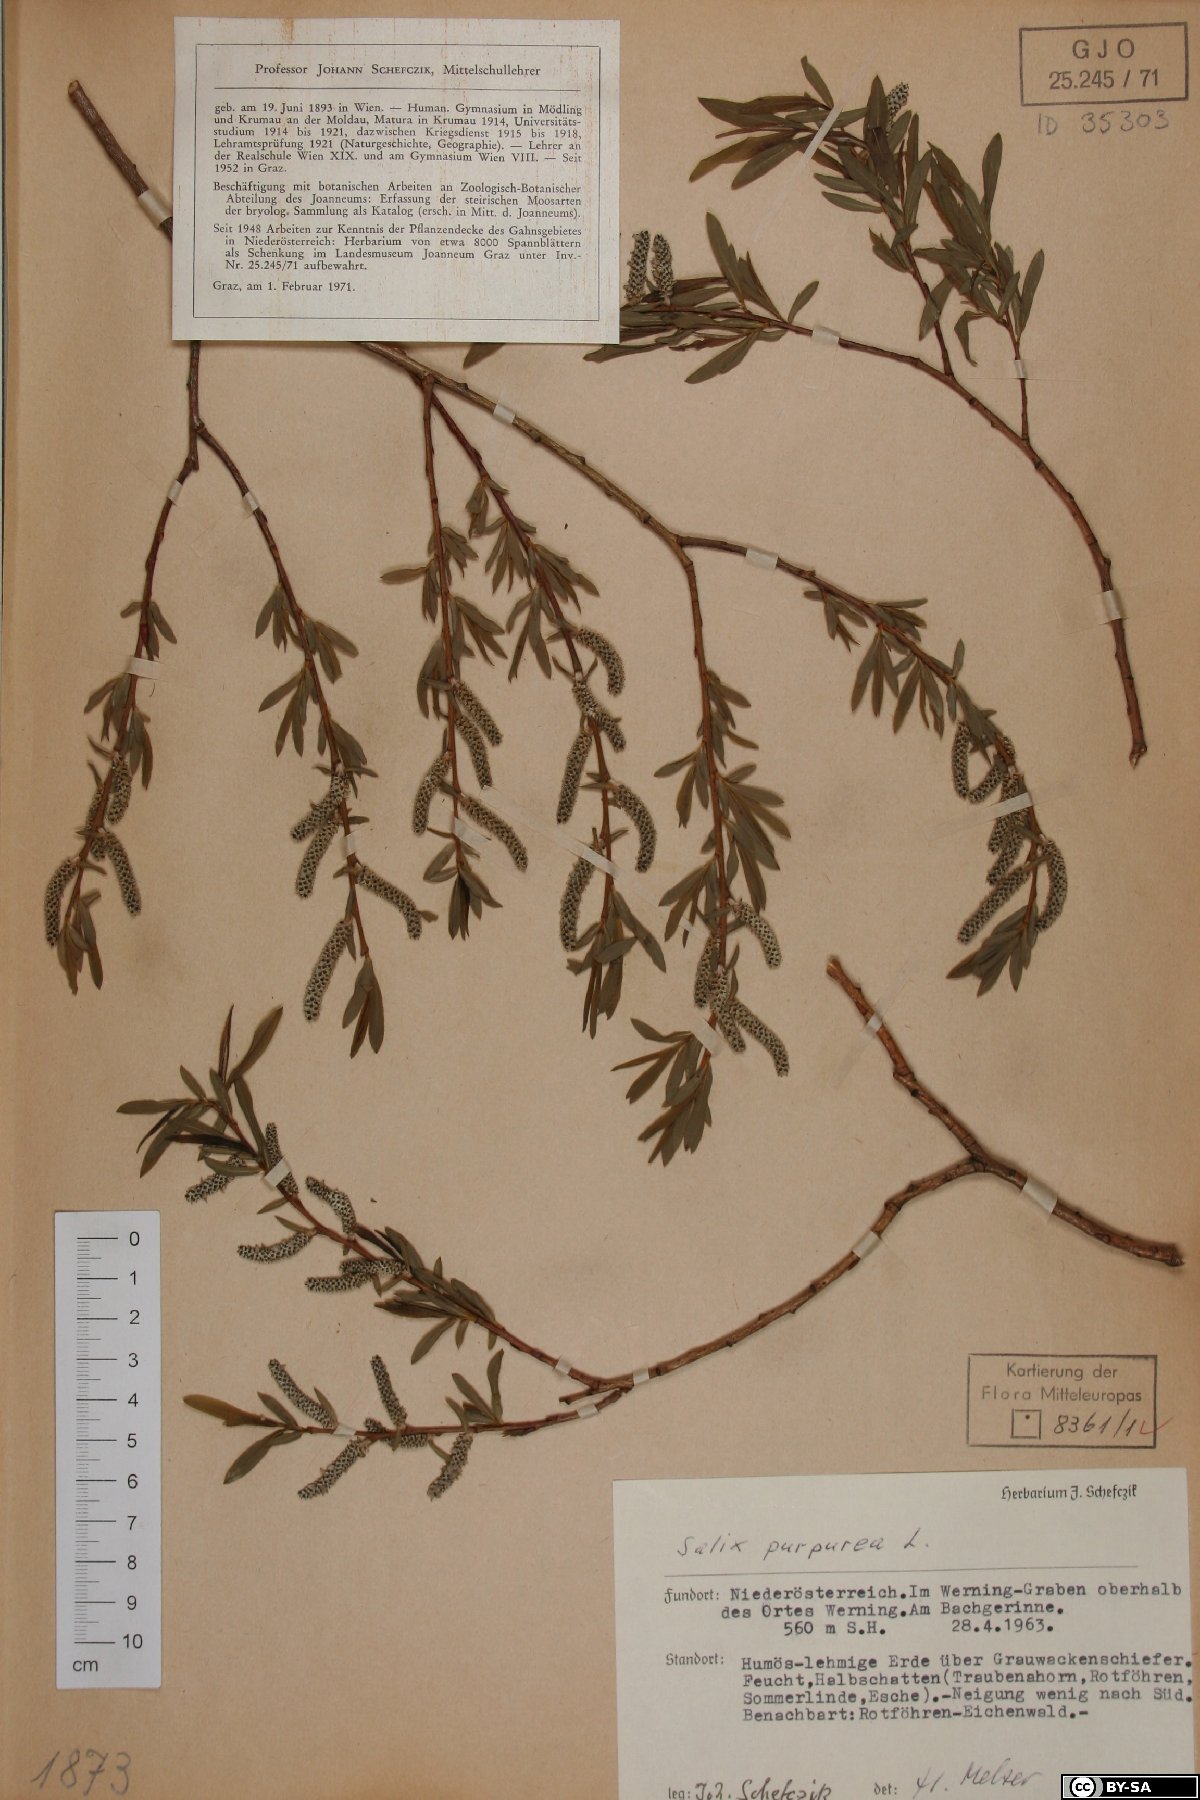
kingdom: Plantae
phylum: Tracheophyta
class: Magnoliopsida
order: Malpighiales
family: Salicaceae
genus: Salix
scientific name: Salix purpurea
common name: Purple willow
